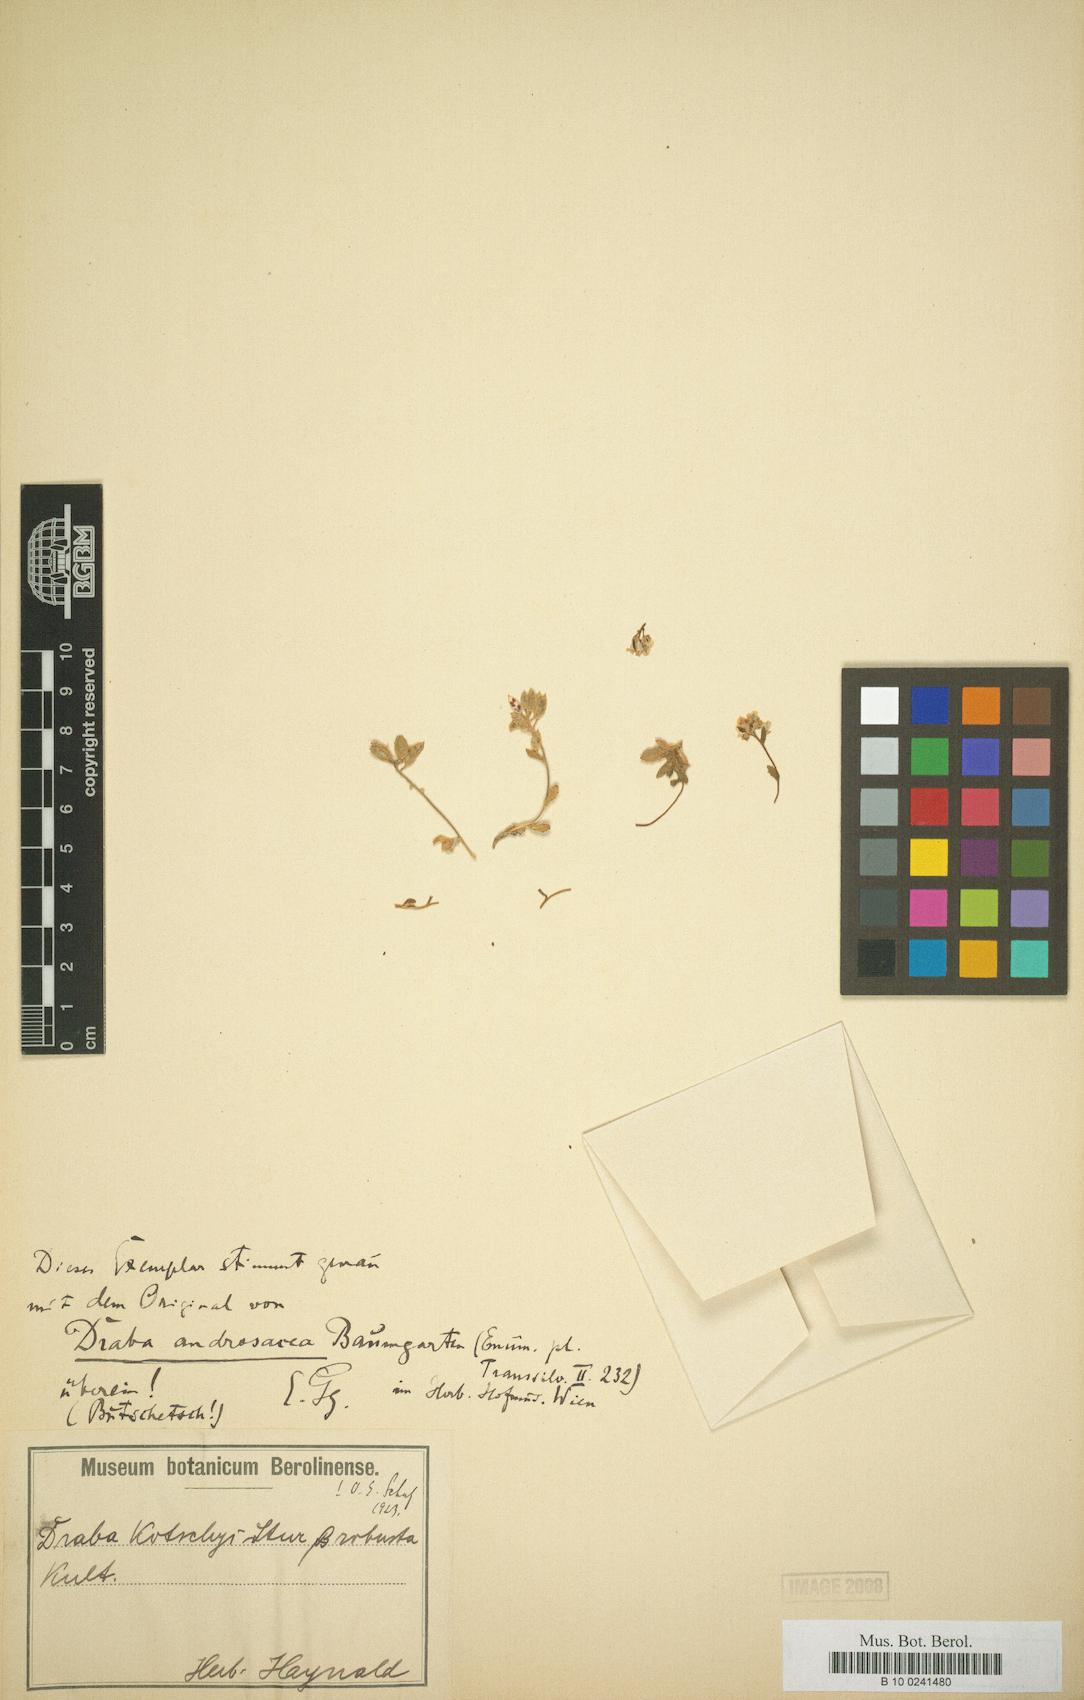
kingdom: Plantae
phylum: Tracheophyta
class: Magnoliopsida
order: Brassicales
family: Brassicaceae
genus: Draba
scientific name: Draba kotschyi
